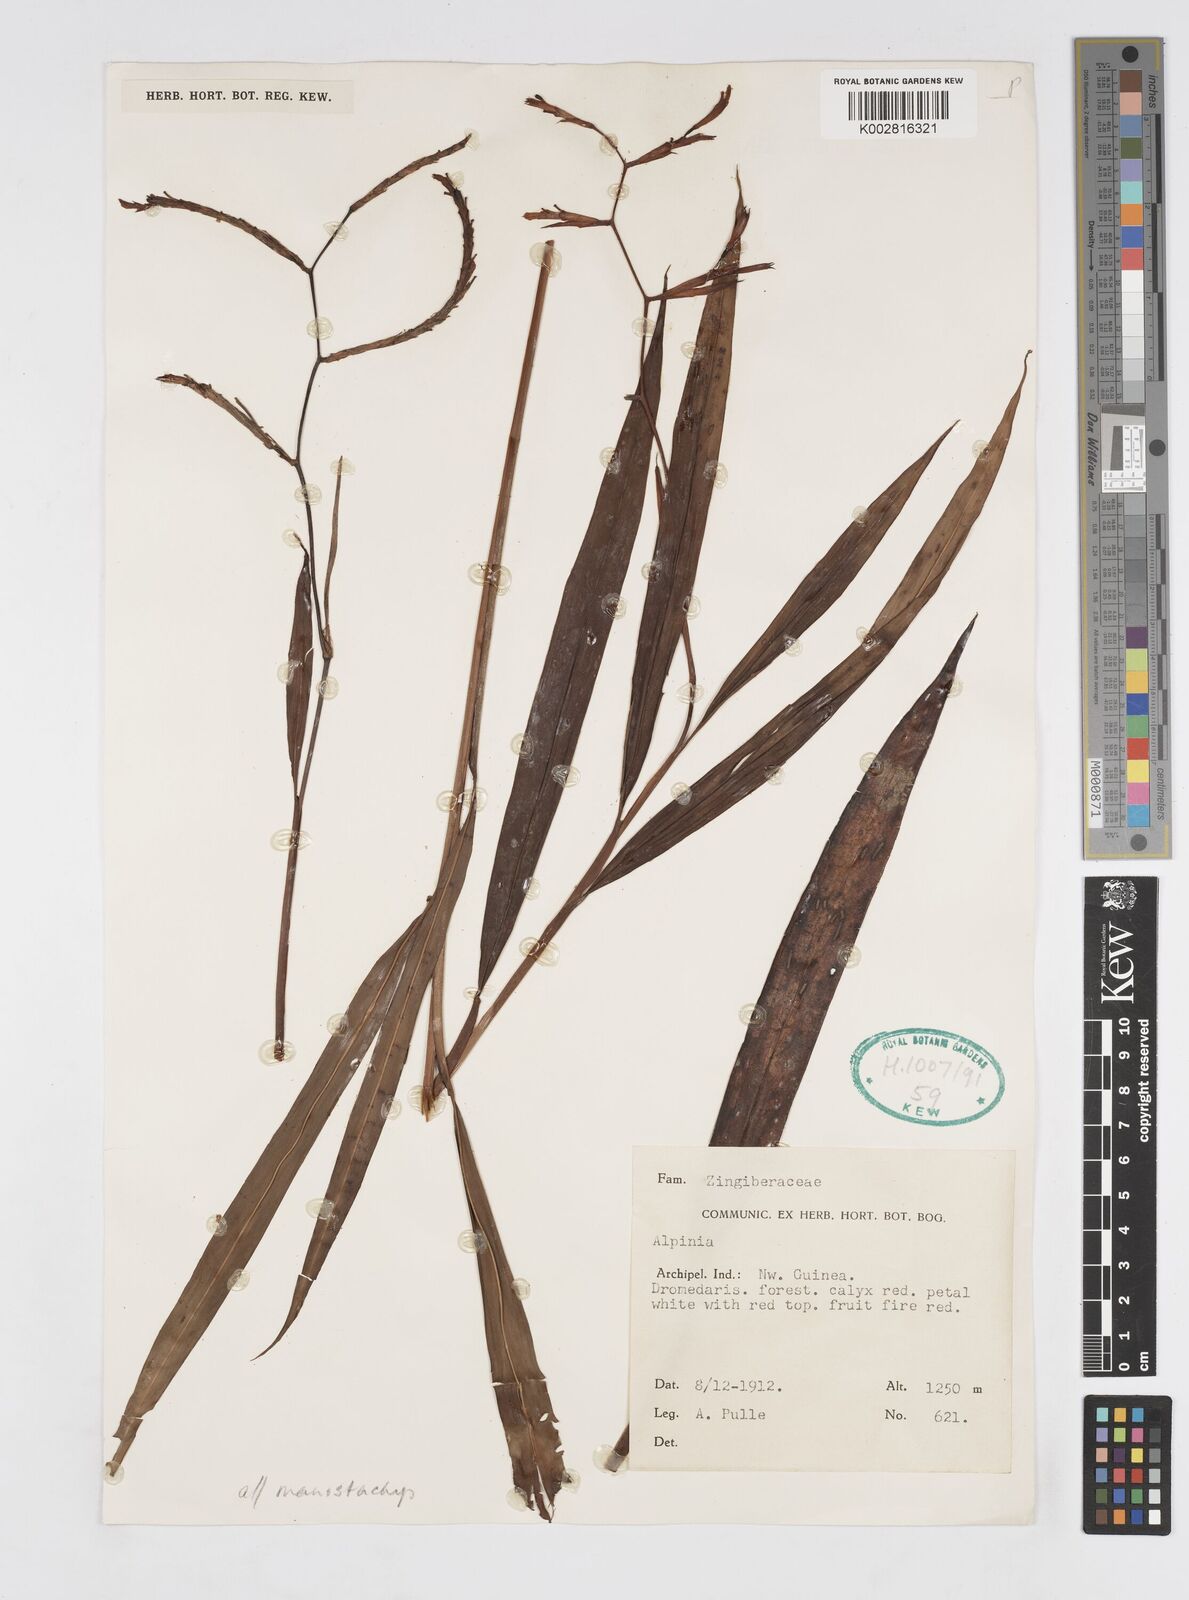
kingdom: Plantae
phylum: Tracheophyta
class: Liliopsida
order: Zingiberales
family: Zingiberaceae
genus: Alpinia
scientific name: Alpinia manostachys
